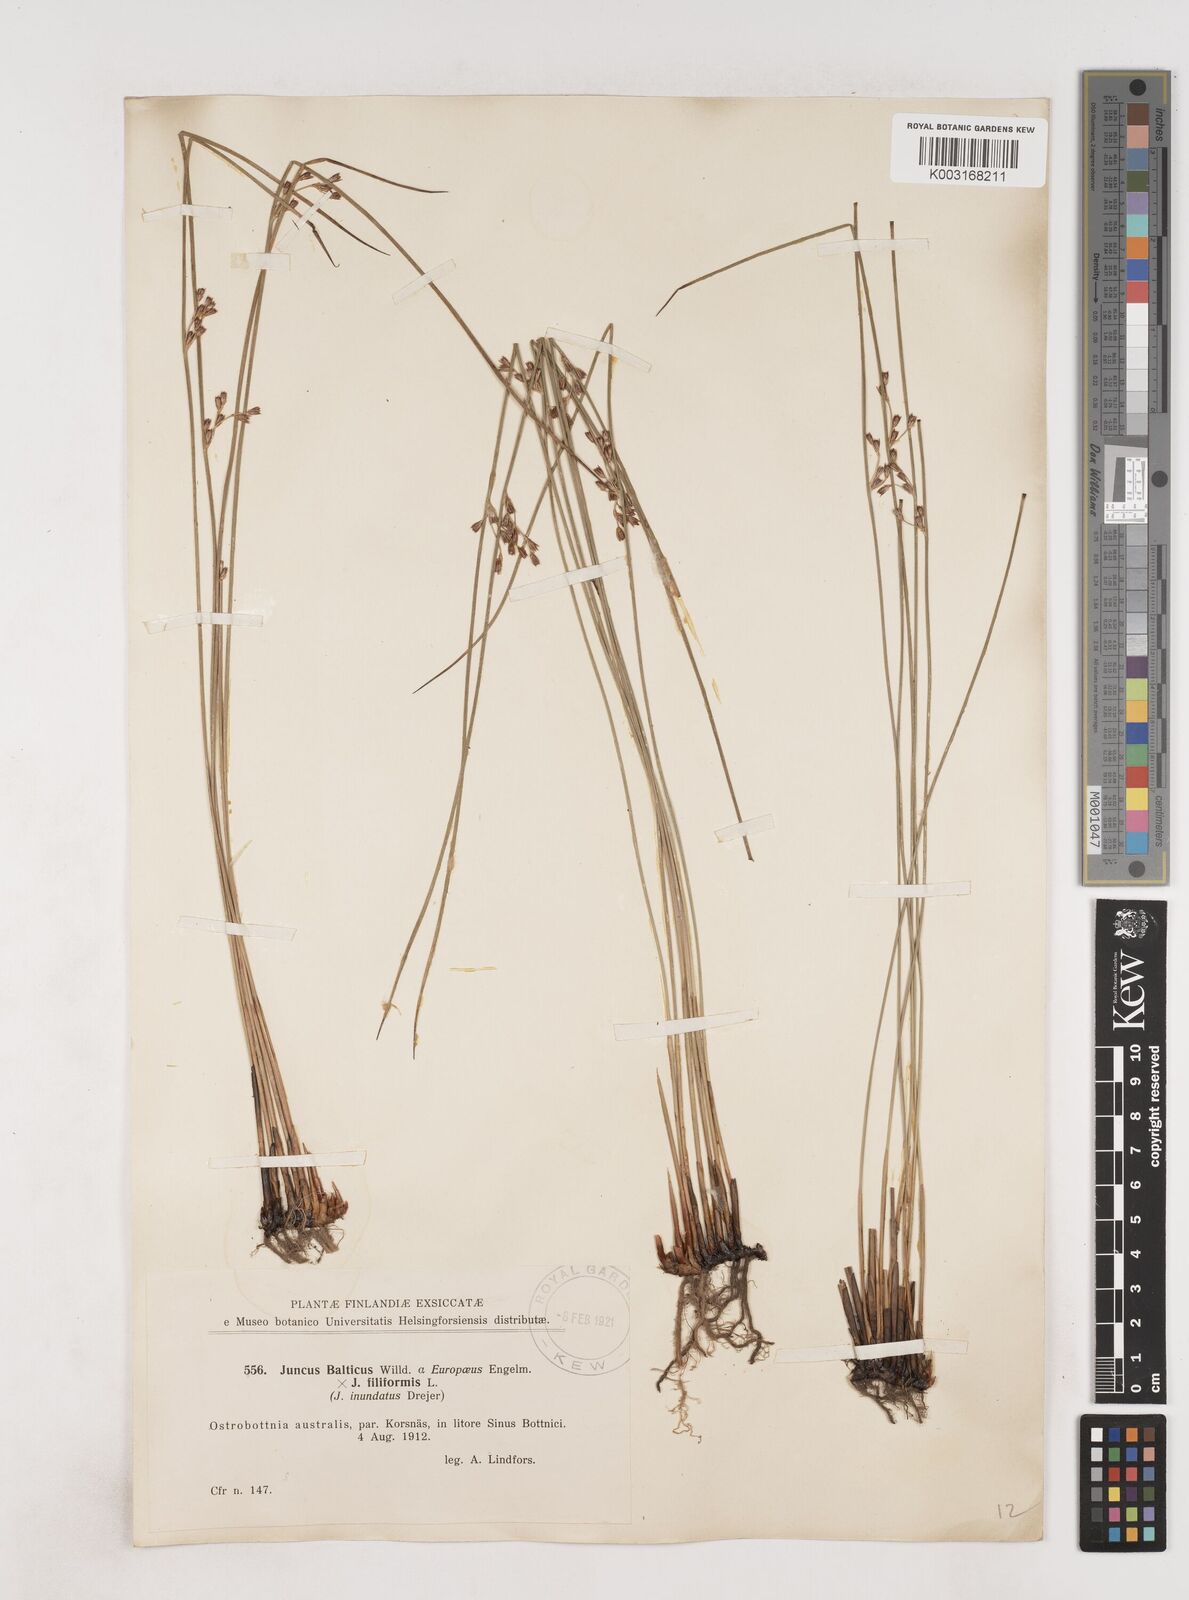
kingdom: Plantae
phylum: Tracheophyta
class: Liliopsida
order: Poales
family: Juncaceae
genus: Juncus
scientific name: Juncus balticus
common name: Baltic rush
